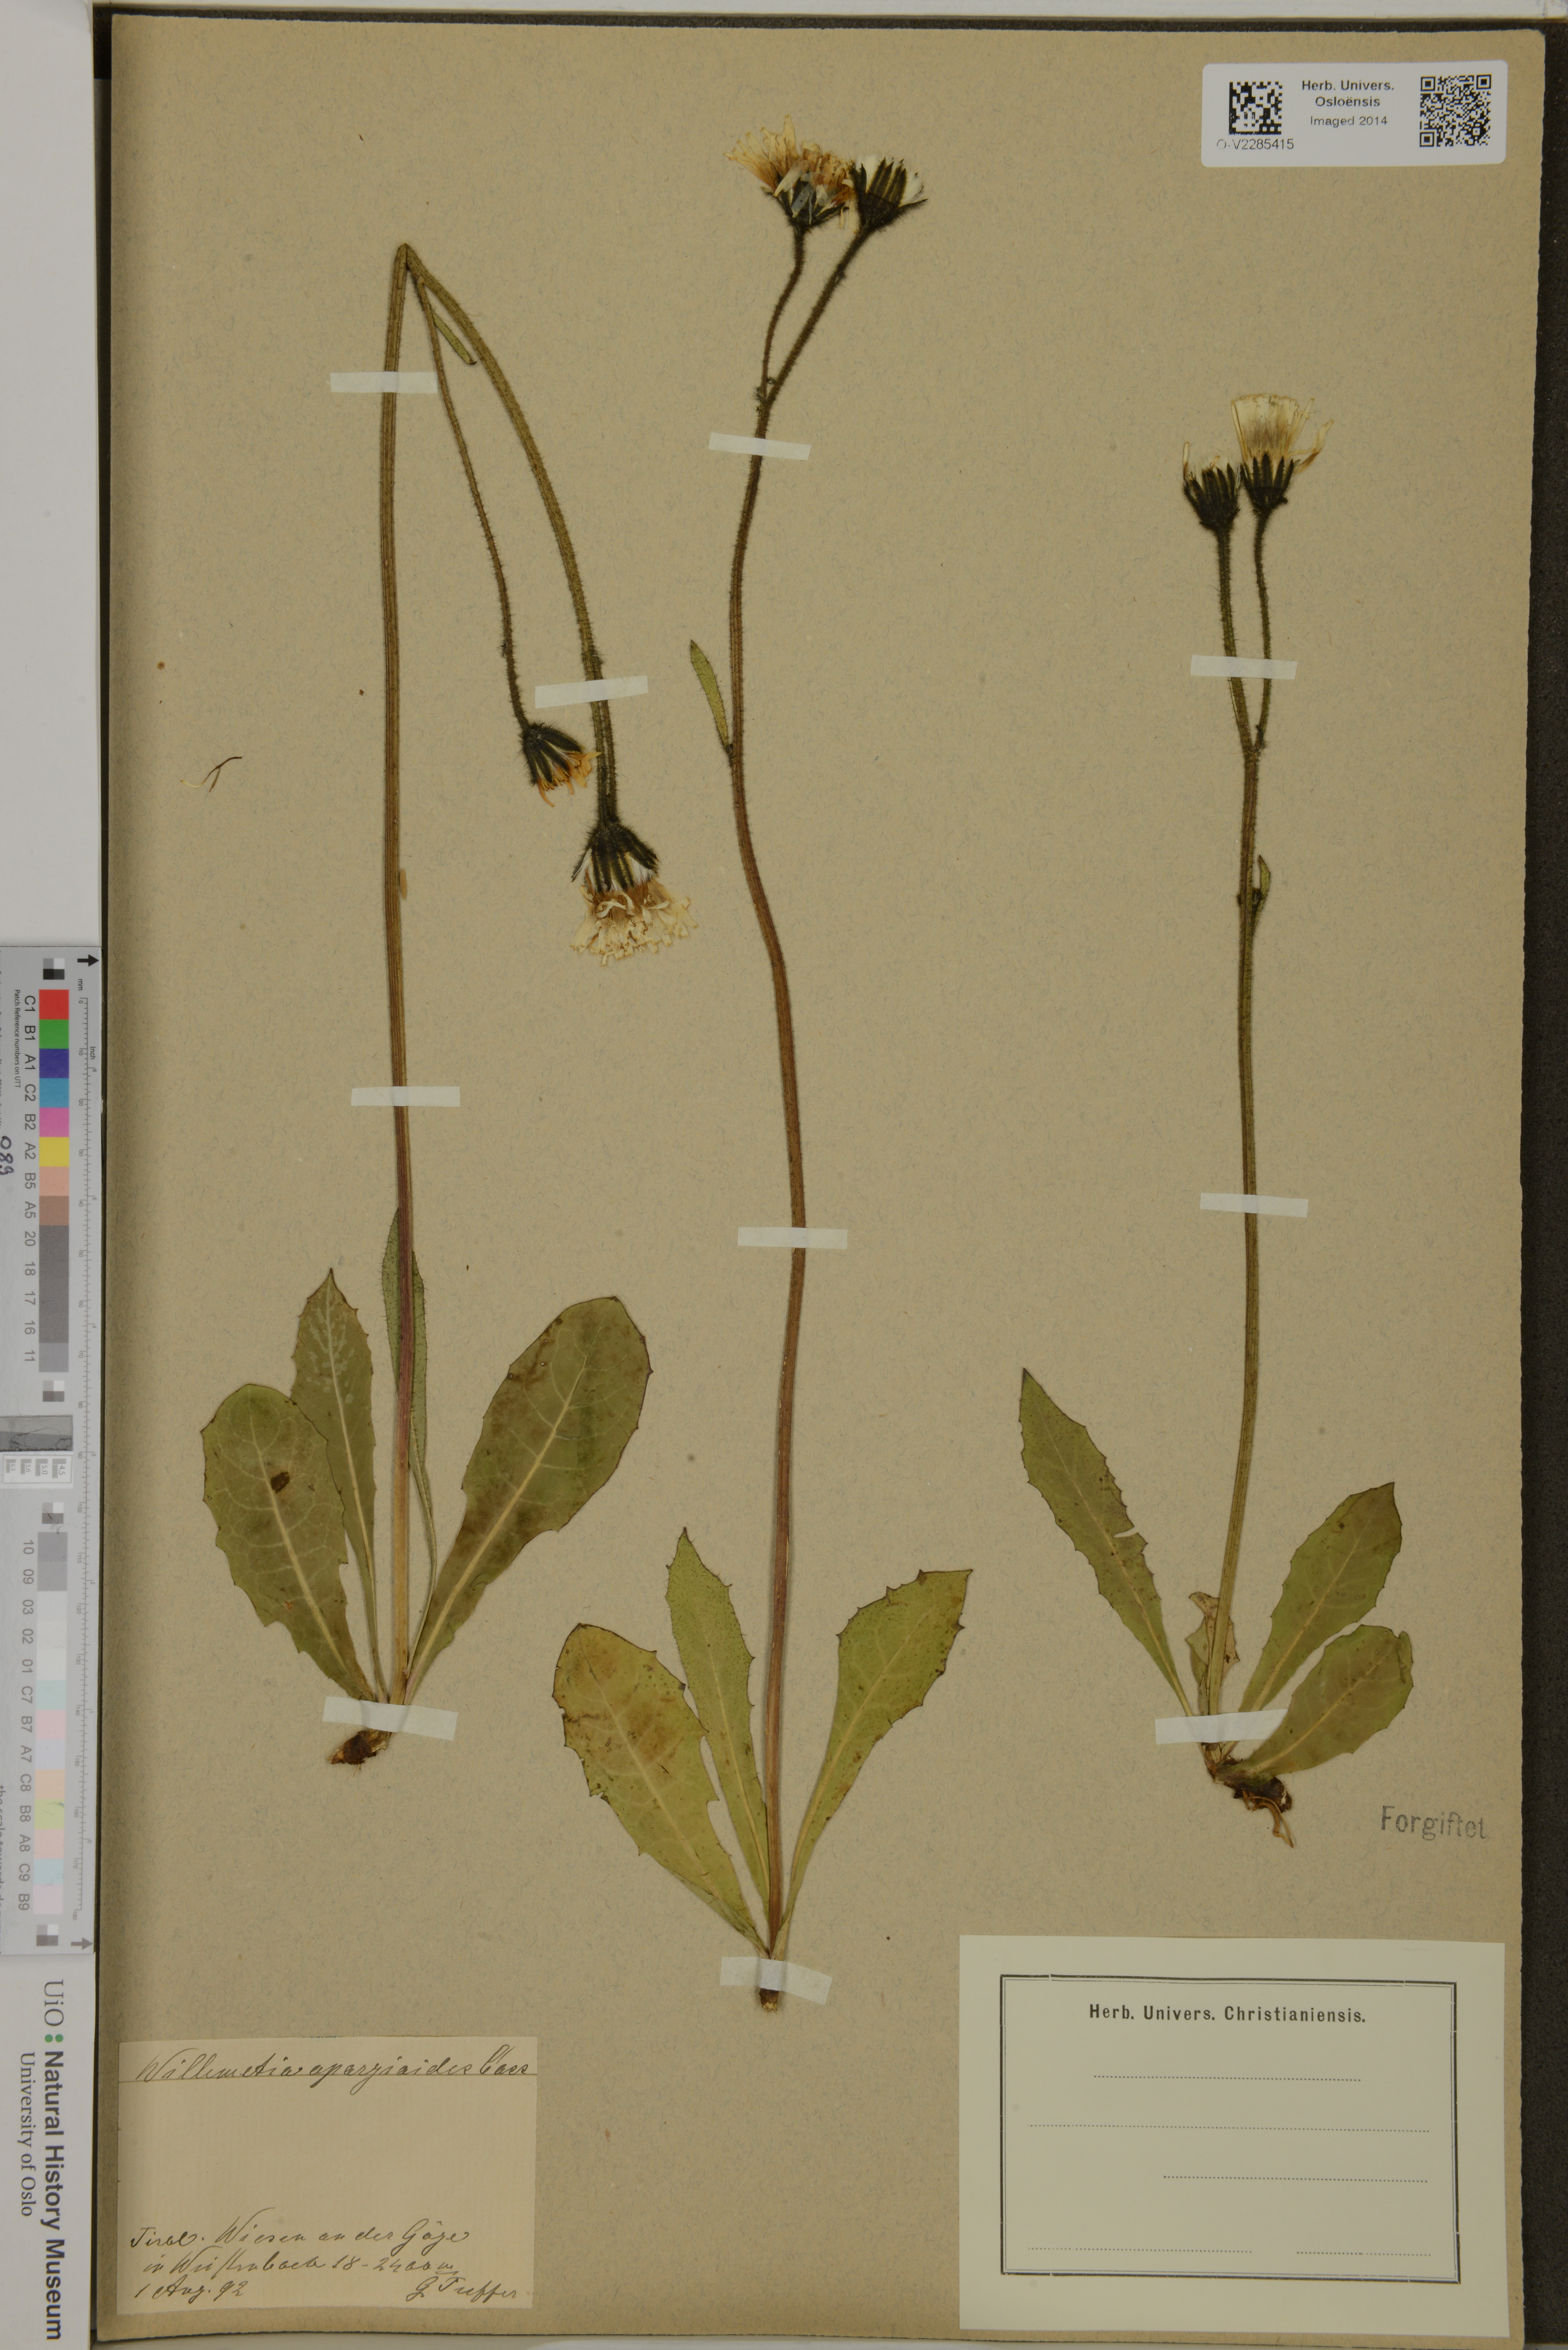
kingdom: Plantae
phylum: Tracheophyta
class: Magnoliopsida
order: Asterales
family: Asteraceae
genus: Willemetia
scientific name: Willemetia stipitata
